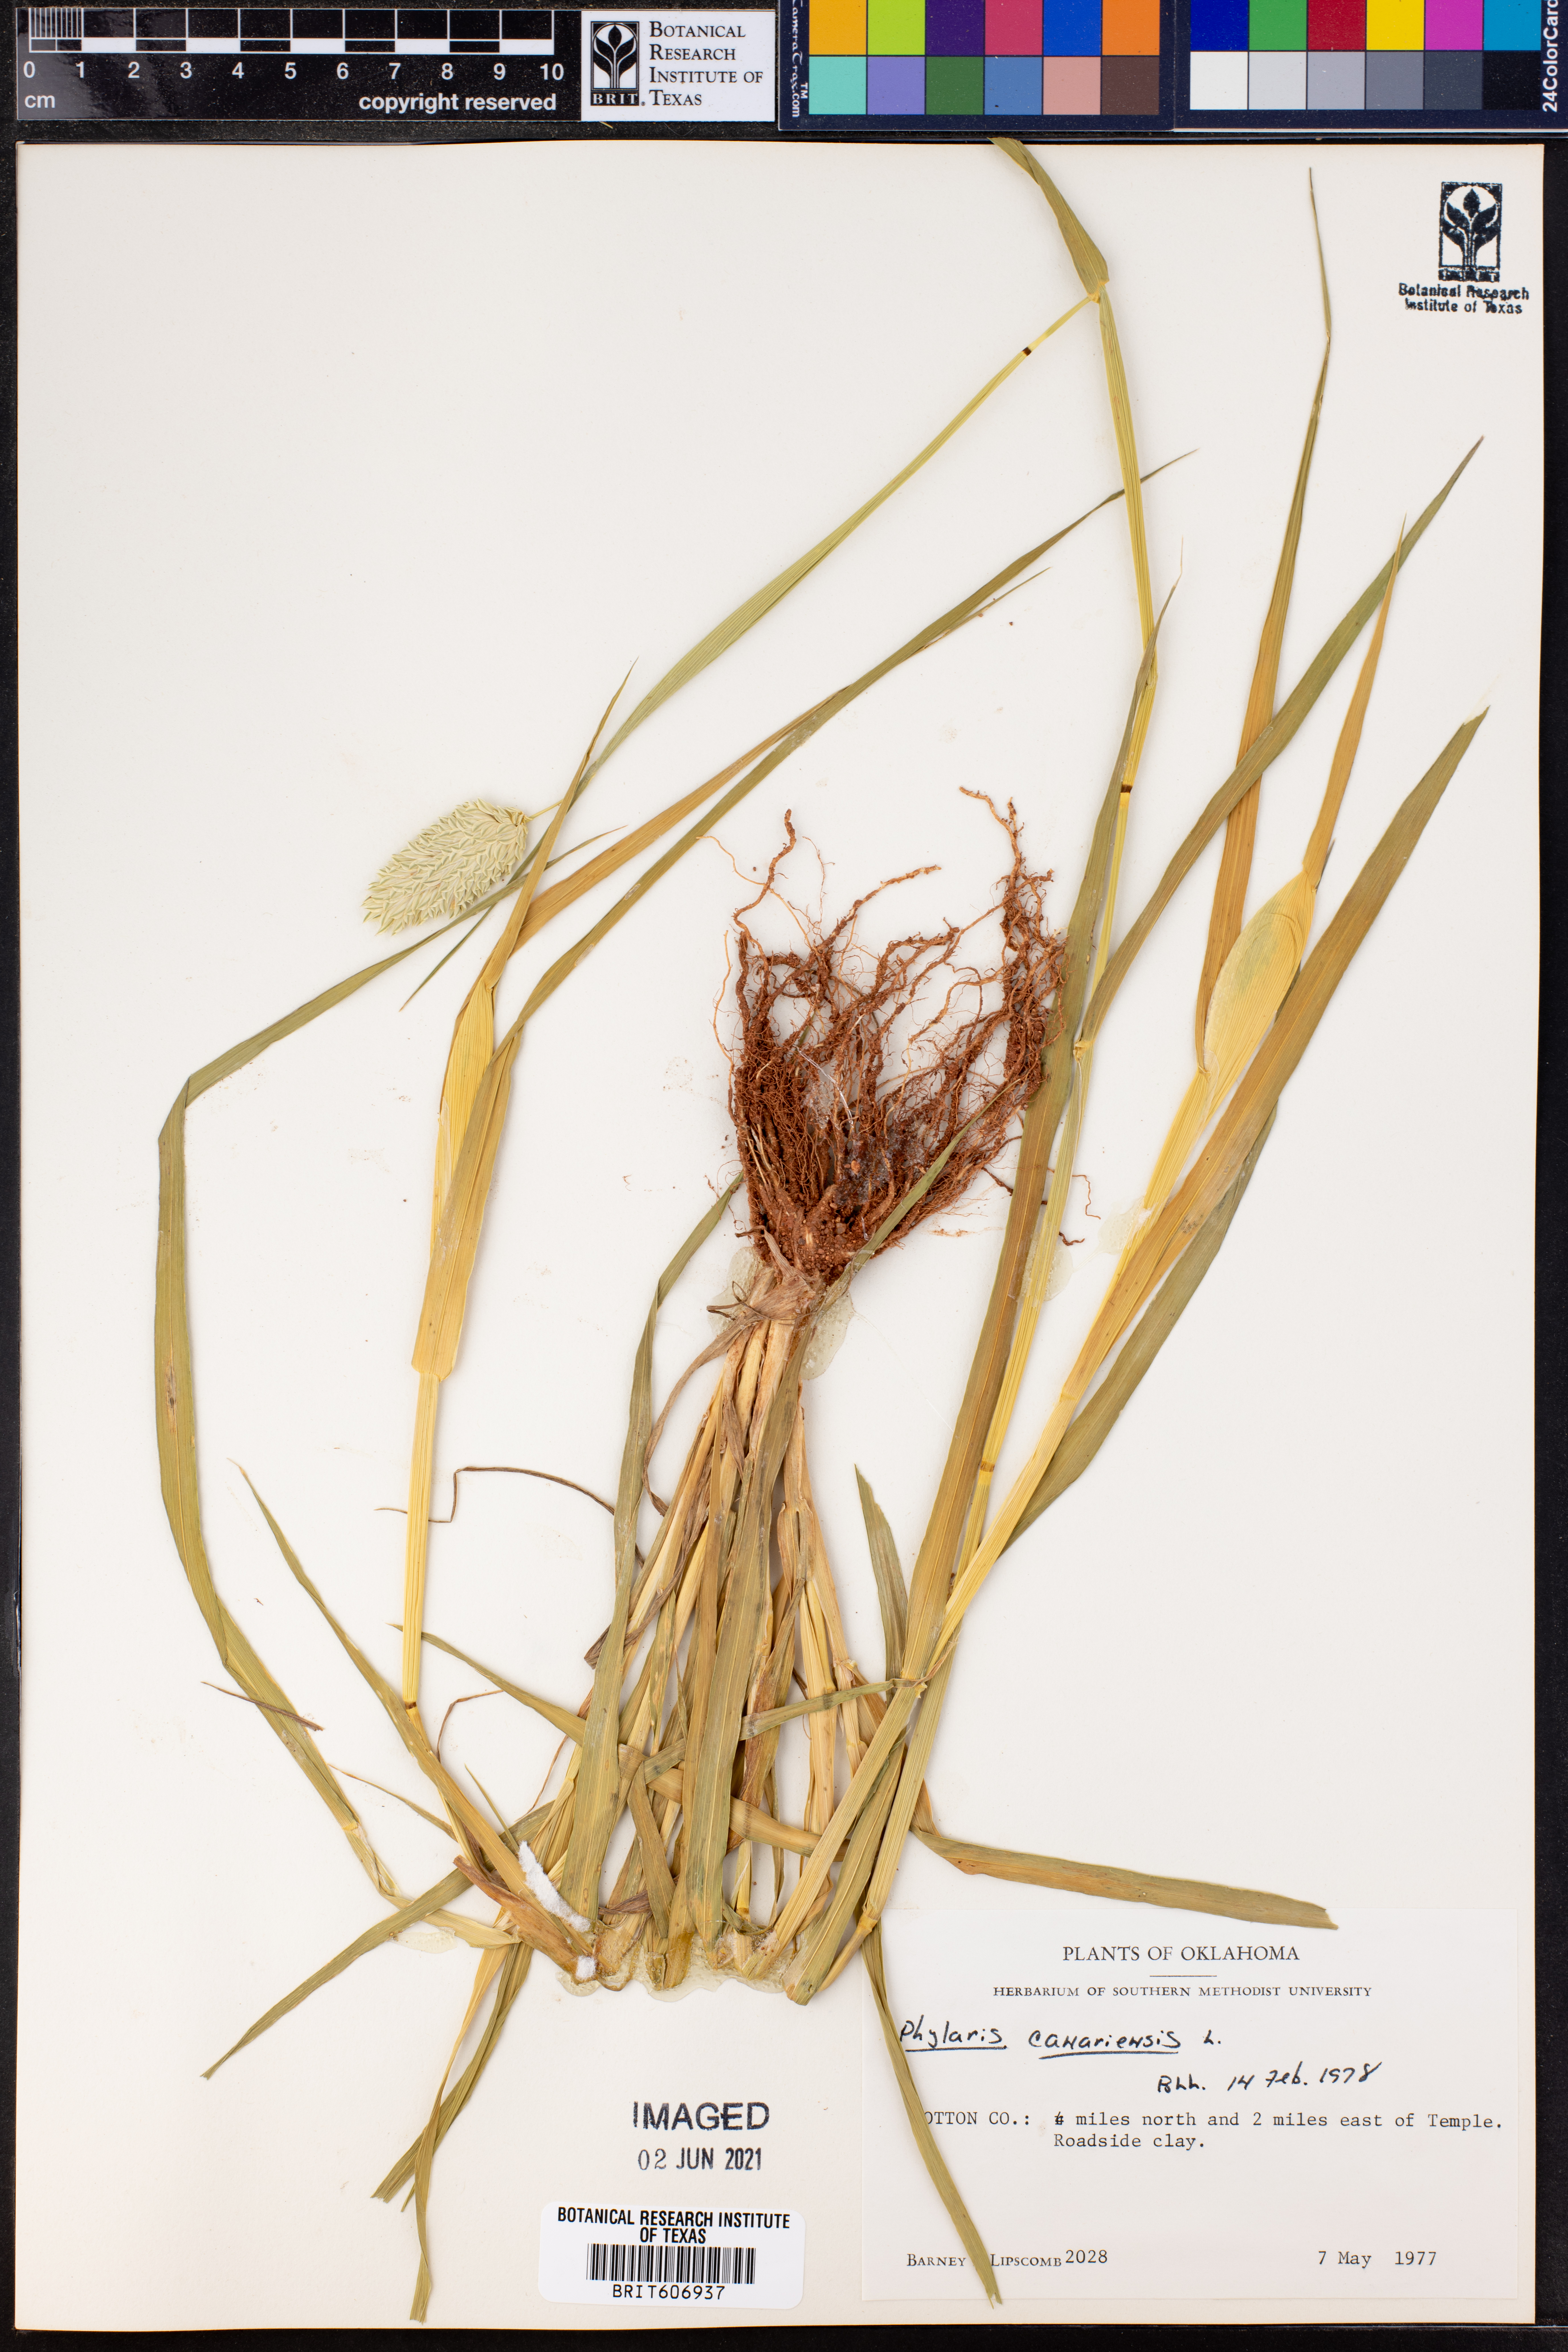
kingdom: Plantae
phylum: Tracheophyta
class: Liliopsida
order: Poales
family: Poaceae
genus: Phalaris
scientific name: Phalaris canariensis
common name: Annual canarygrass
